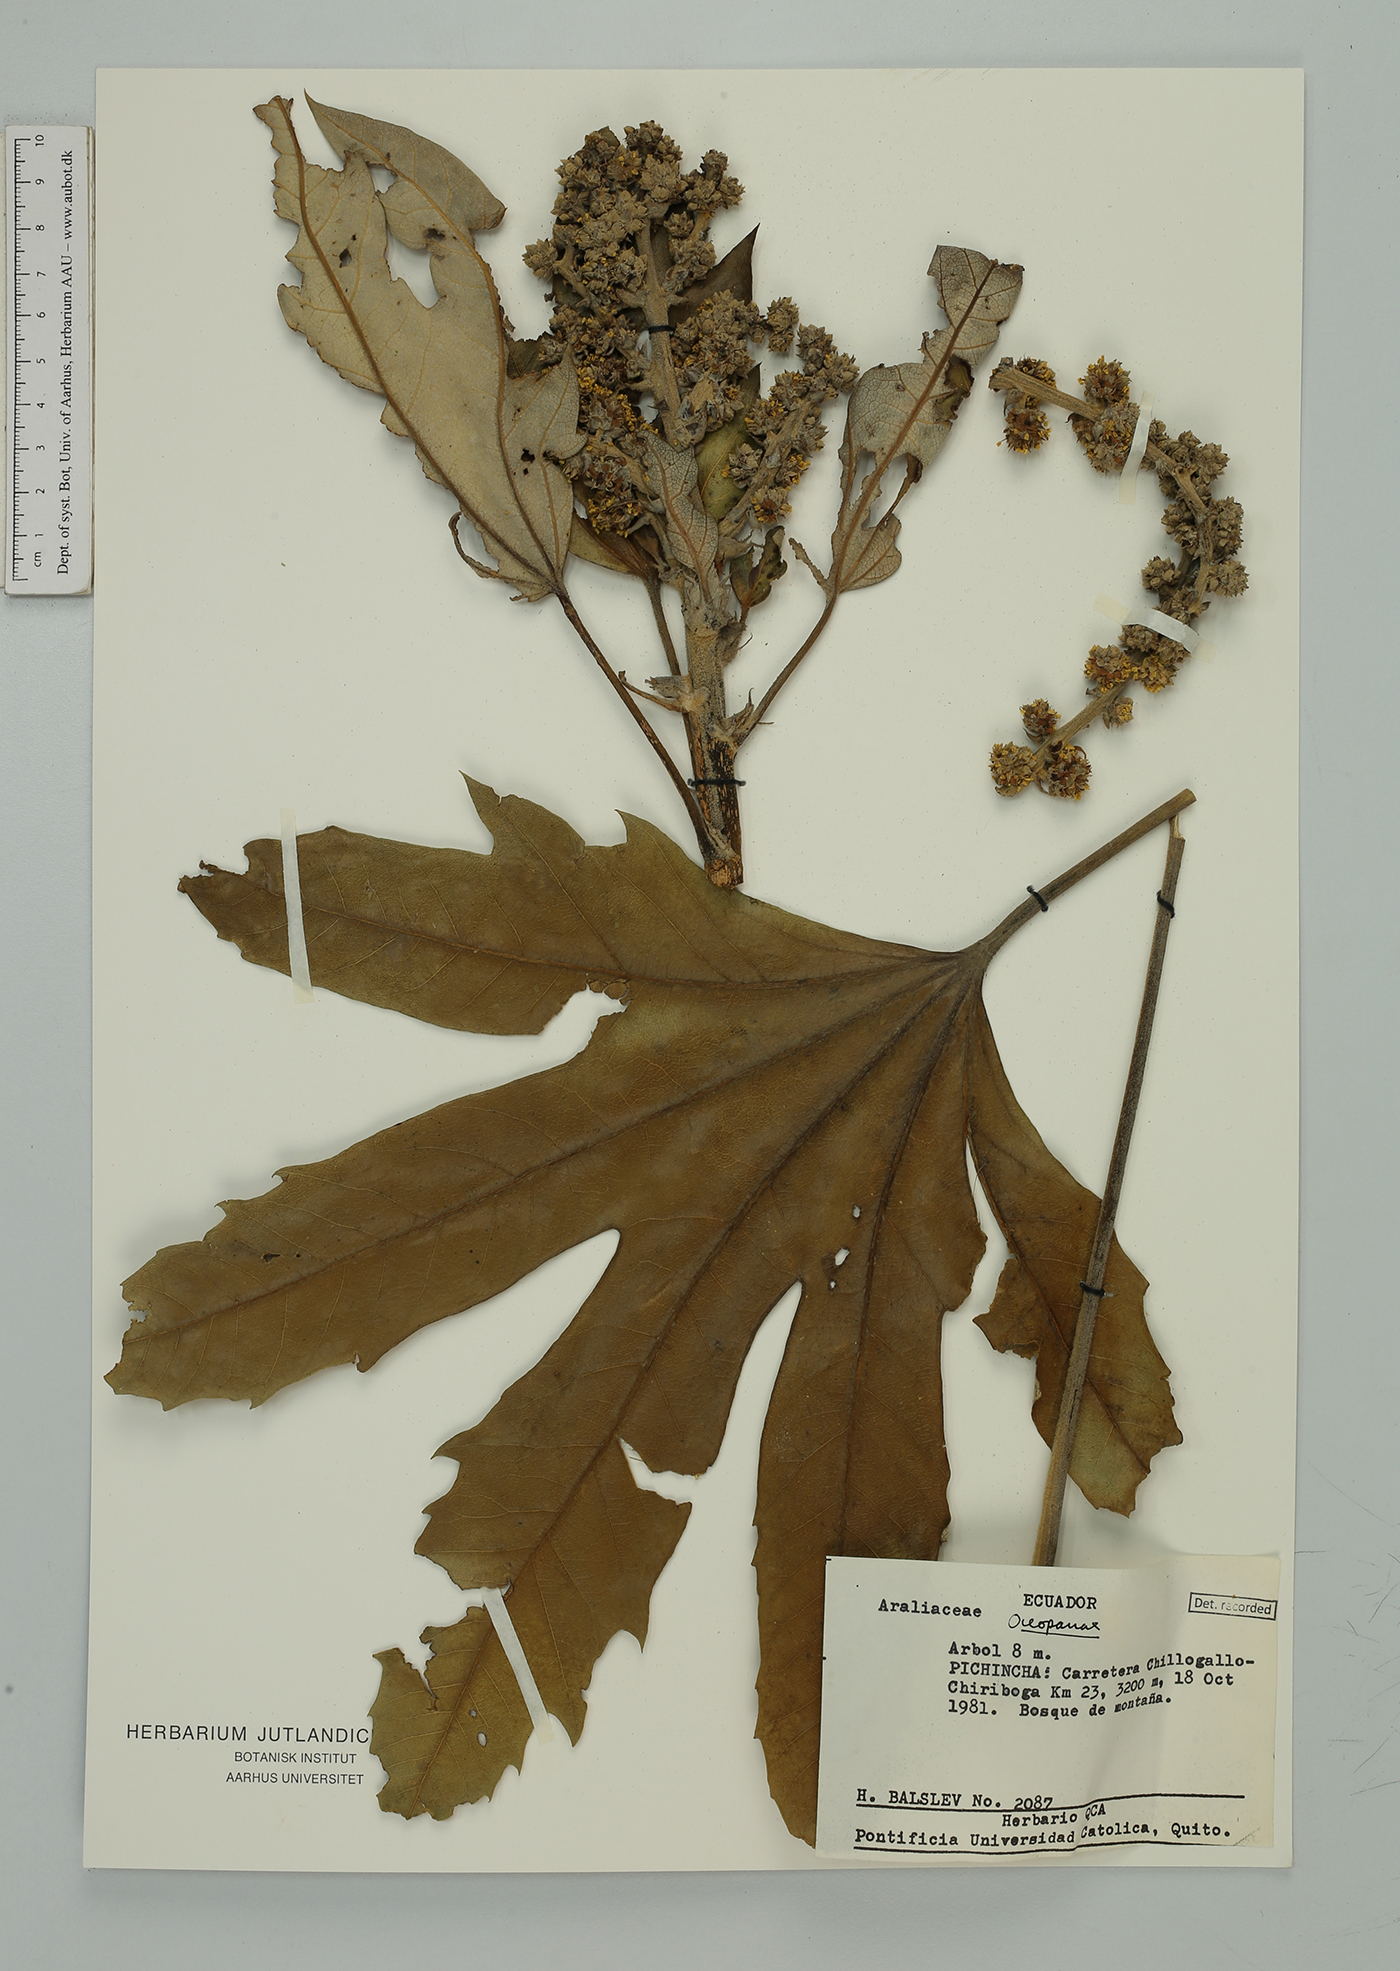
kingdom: Plantae
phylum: Tracheophyta
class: Magnoliopsida
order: Apiales
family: Araliaceae
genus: Oreopanax
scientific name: Oreopanax
